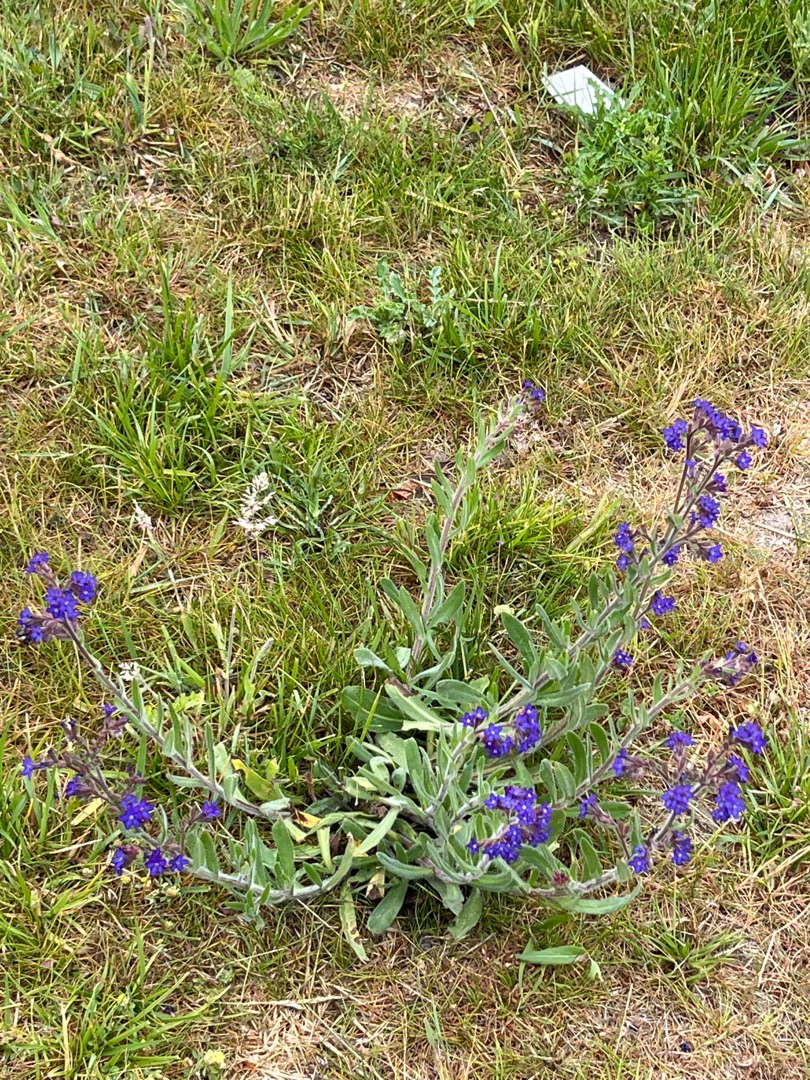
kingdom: Plantae
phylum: Tracheophyta
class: Magnoliopsida
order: Boraginales
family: Boraginaceae
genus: Anchusa
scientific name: Anchusa officinalis
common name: Læge-oksetunge
